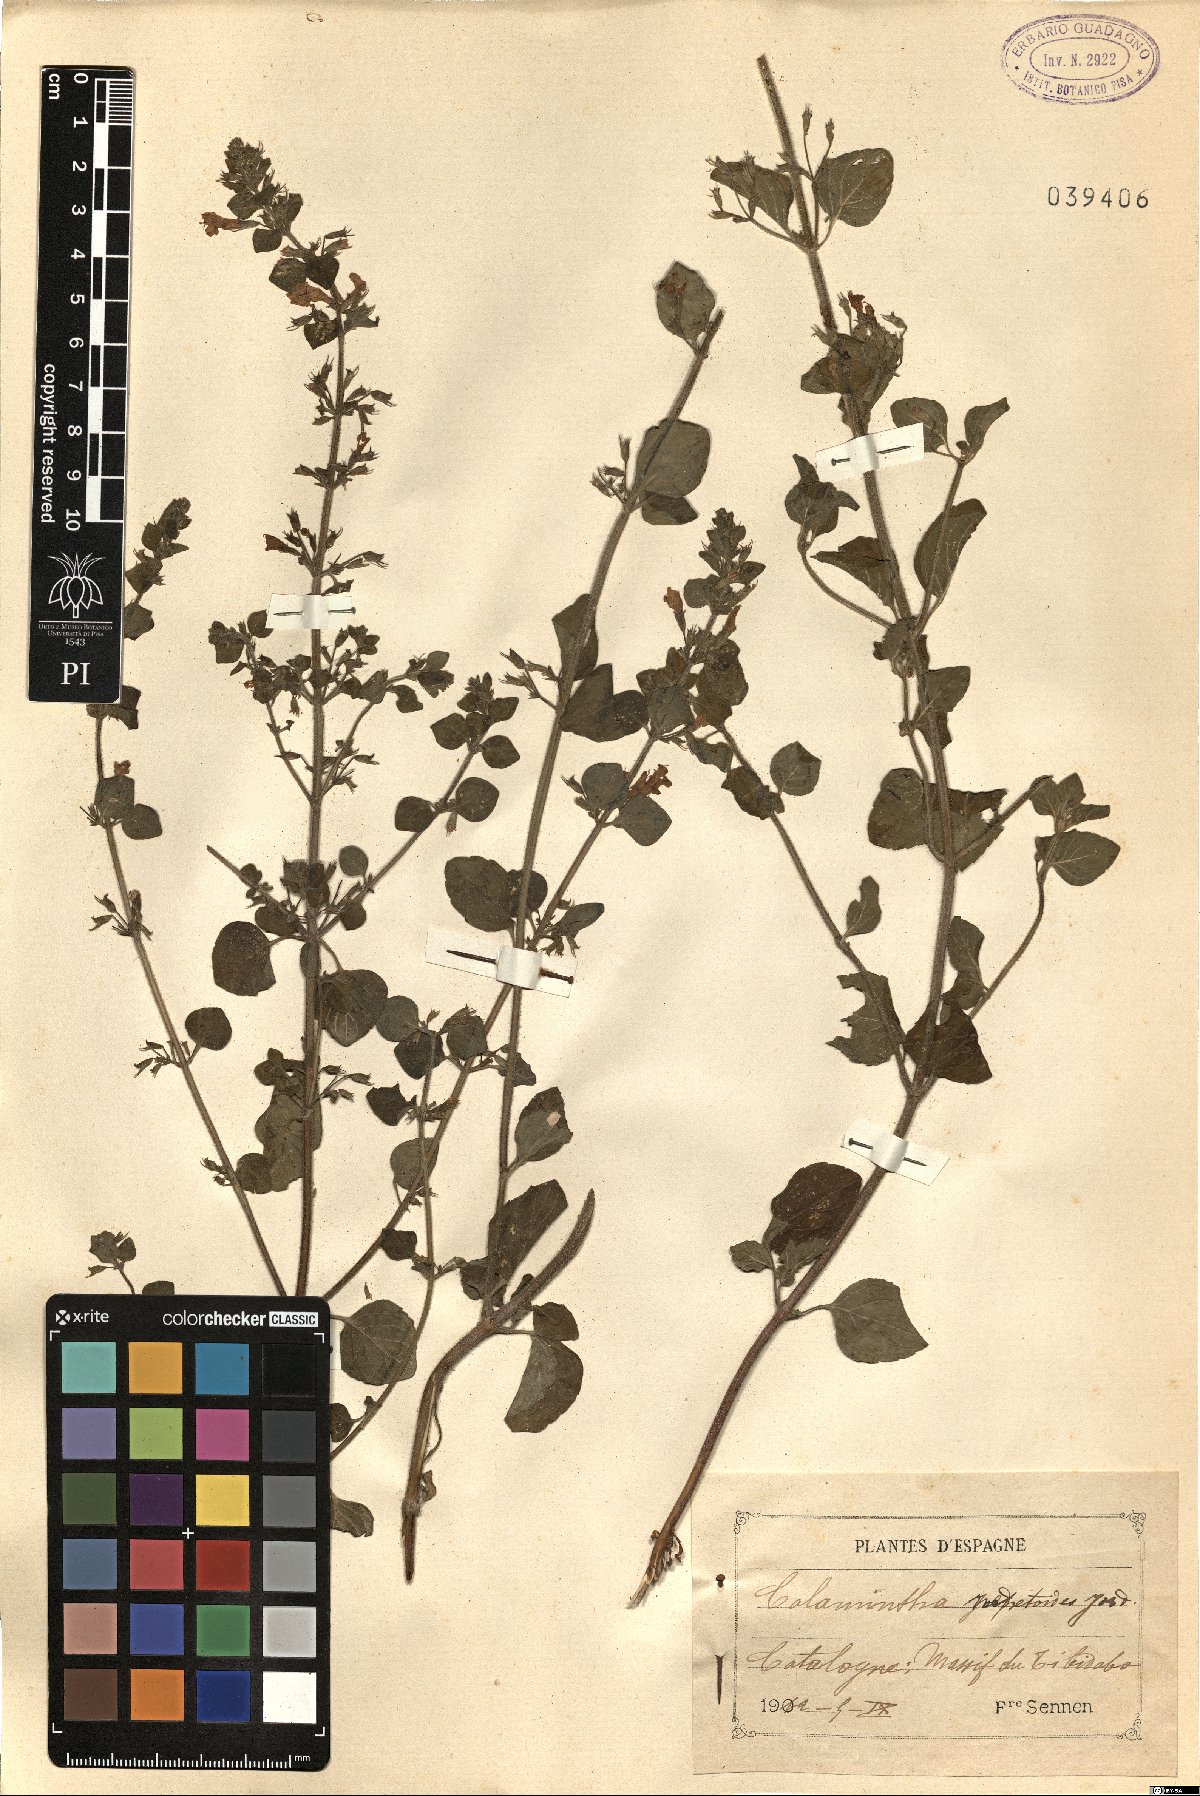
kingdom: Plantae
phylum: Tracheophyta
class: Magnoliopsida
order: Lamiales
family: Lamiaceae
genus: Clinopodium
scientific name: Clinopodium nepeta
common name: Lesser calamint
